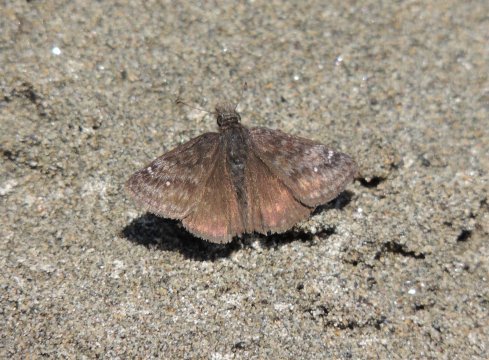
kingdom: Animalia
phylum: Arthropoda
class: Insecta
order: Lepidoptera
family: Hesperiidae
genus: Gesta
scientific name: Gesta
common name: Persius Duskywing
